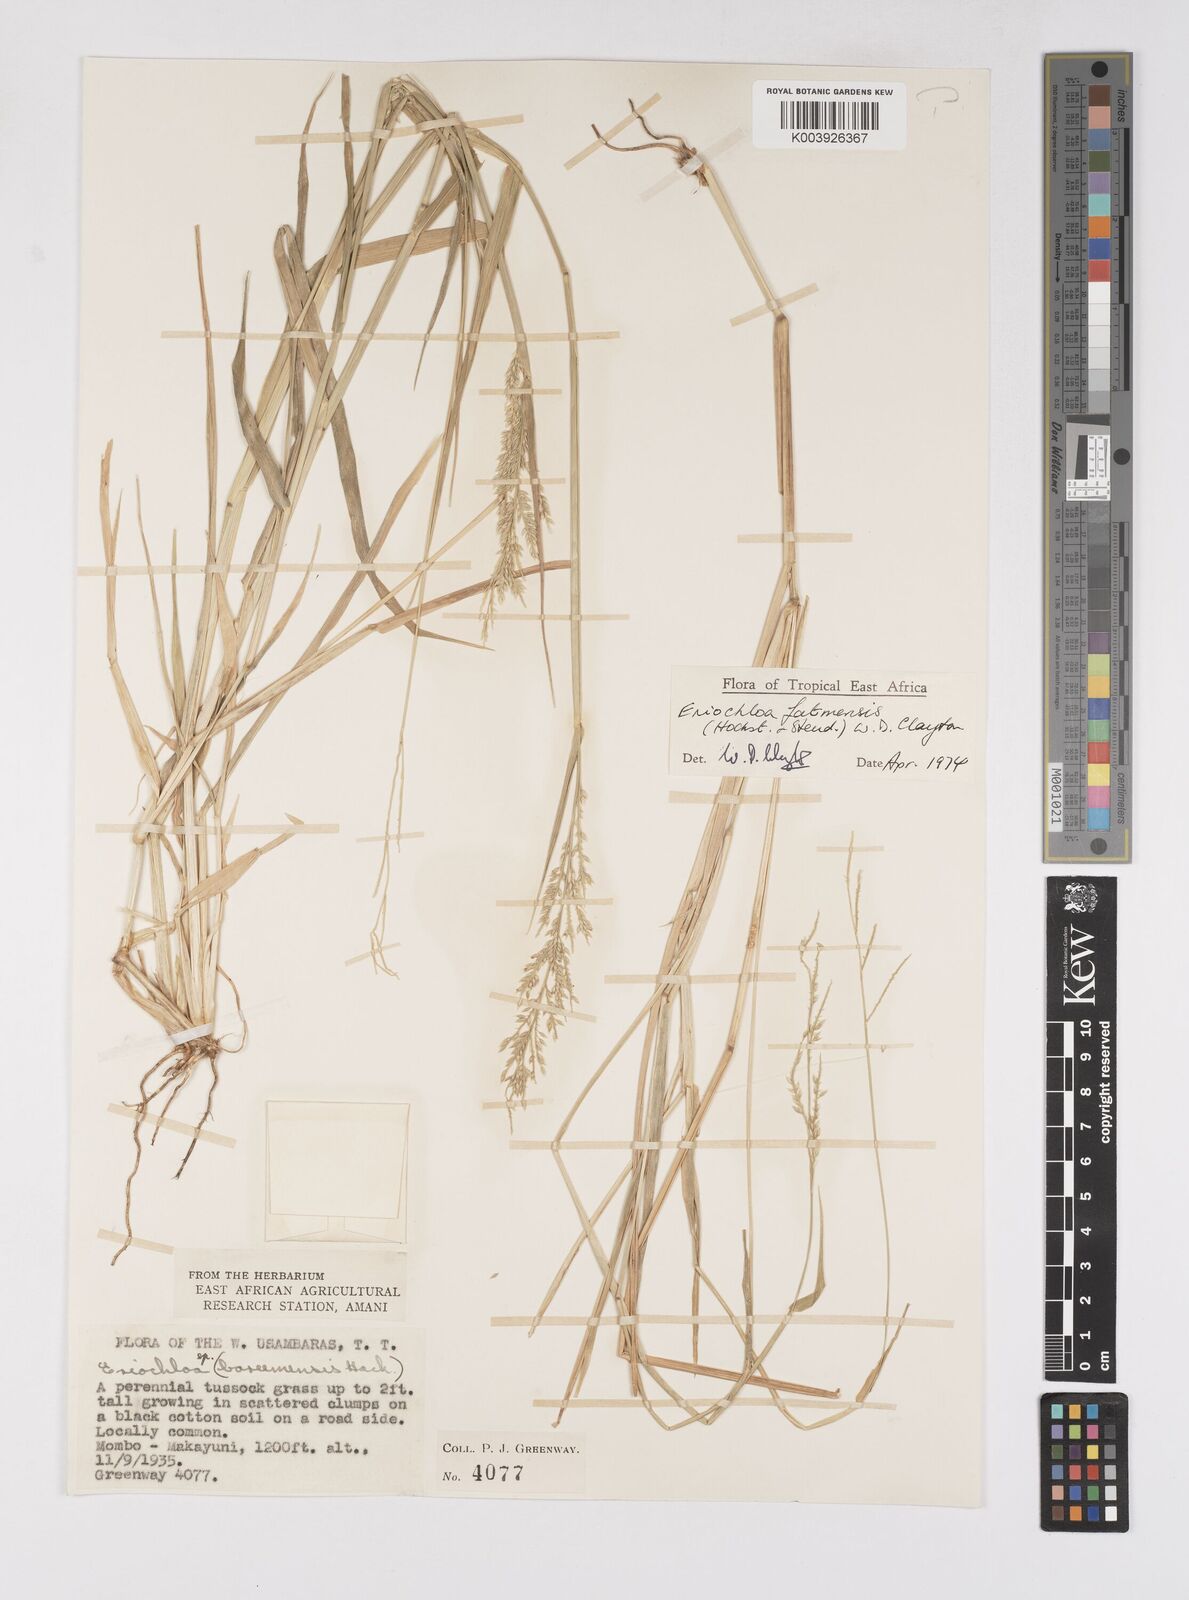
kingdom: Plantae
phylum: Tracheophyta
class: Liliopsida
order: Poales
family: Poaceae
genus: Eriochloa
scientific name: Eriochloa barbatus
